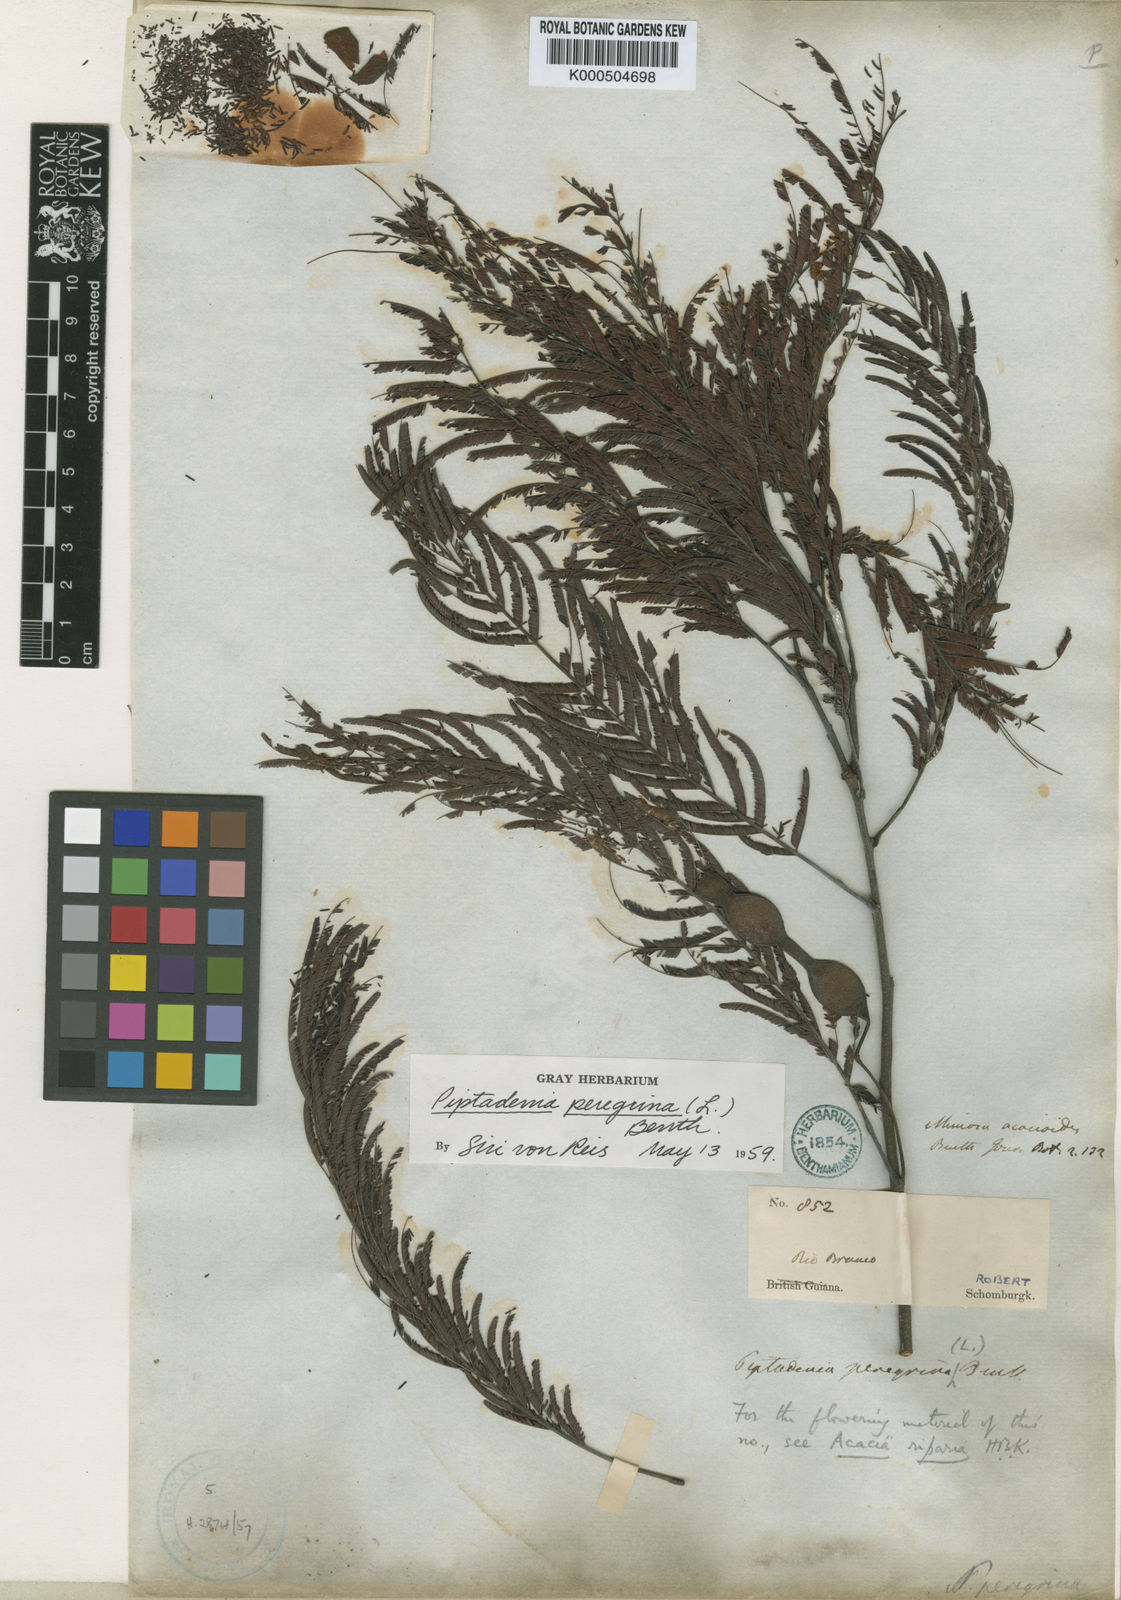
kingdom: Plantae
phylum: Tracheophyta
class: Magnoliopsida
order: Fabales
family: Fabaceae
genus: Anadenanthera
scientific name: Anadenanthera peregrina
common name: Cohoba
